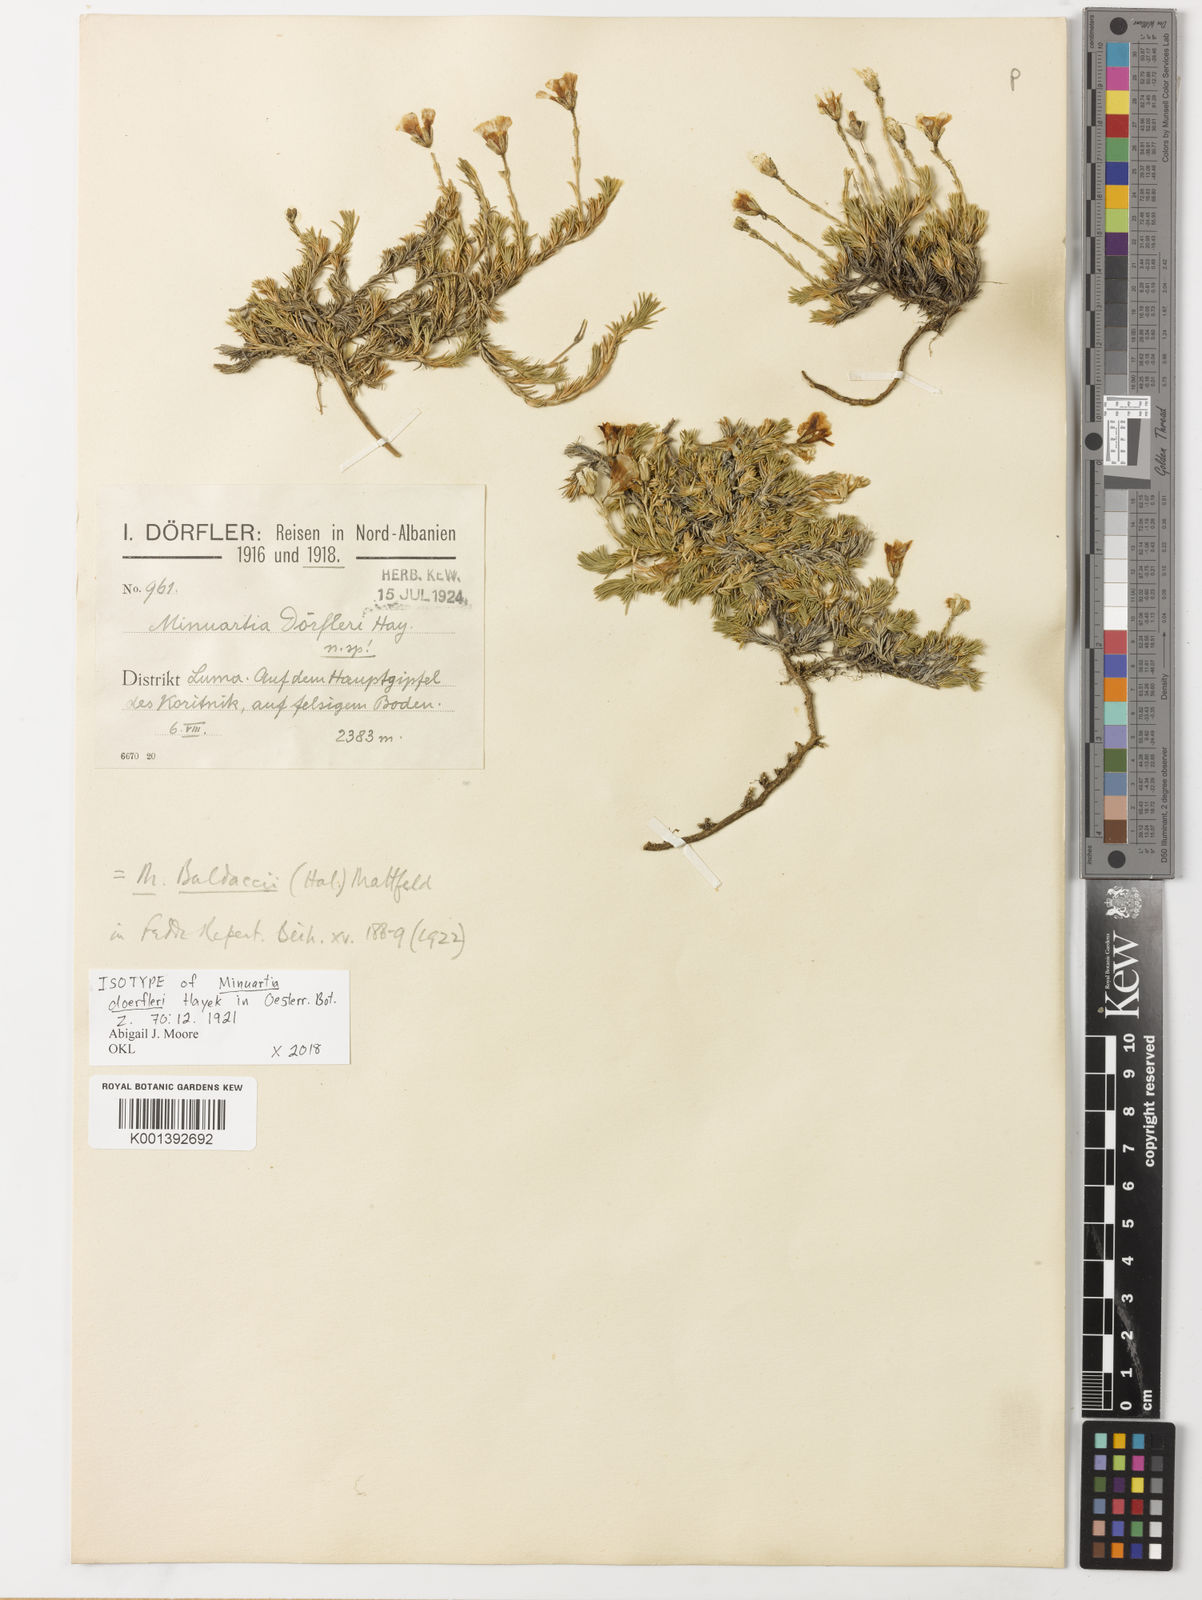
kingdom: Plantae
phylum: Tracheophyta
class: Magnoliopsida
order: Caryophyllales
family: Caryophyllaceae
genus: Cherleria
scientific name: Cherleria doerfleri
